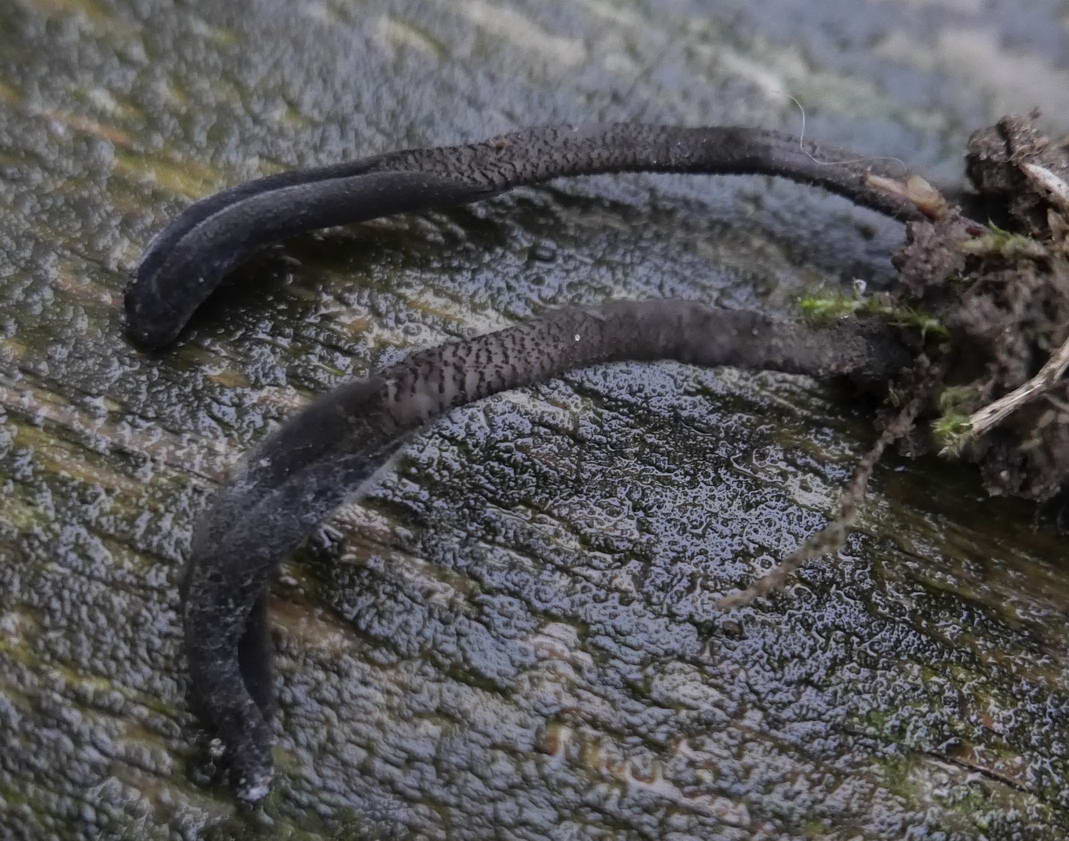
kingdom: Fungi
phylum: Ascomycota
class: Geoglossomycetes
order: Geoglossales
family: Geoglossaceae
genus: Geoglossum
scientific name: Geoglossum fallax
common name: småskællet jordtunge
